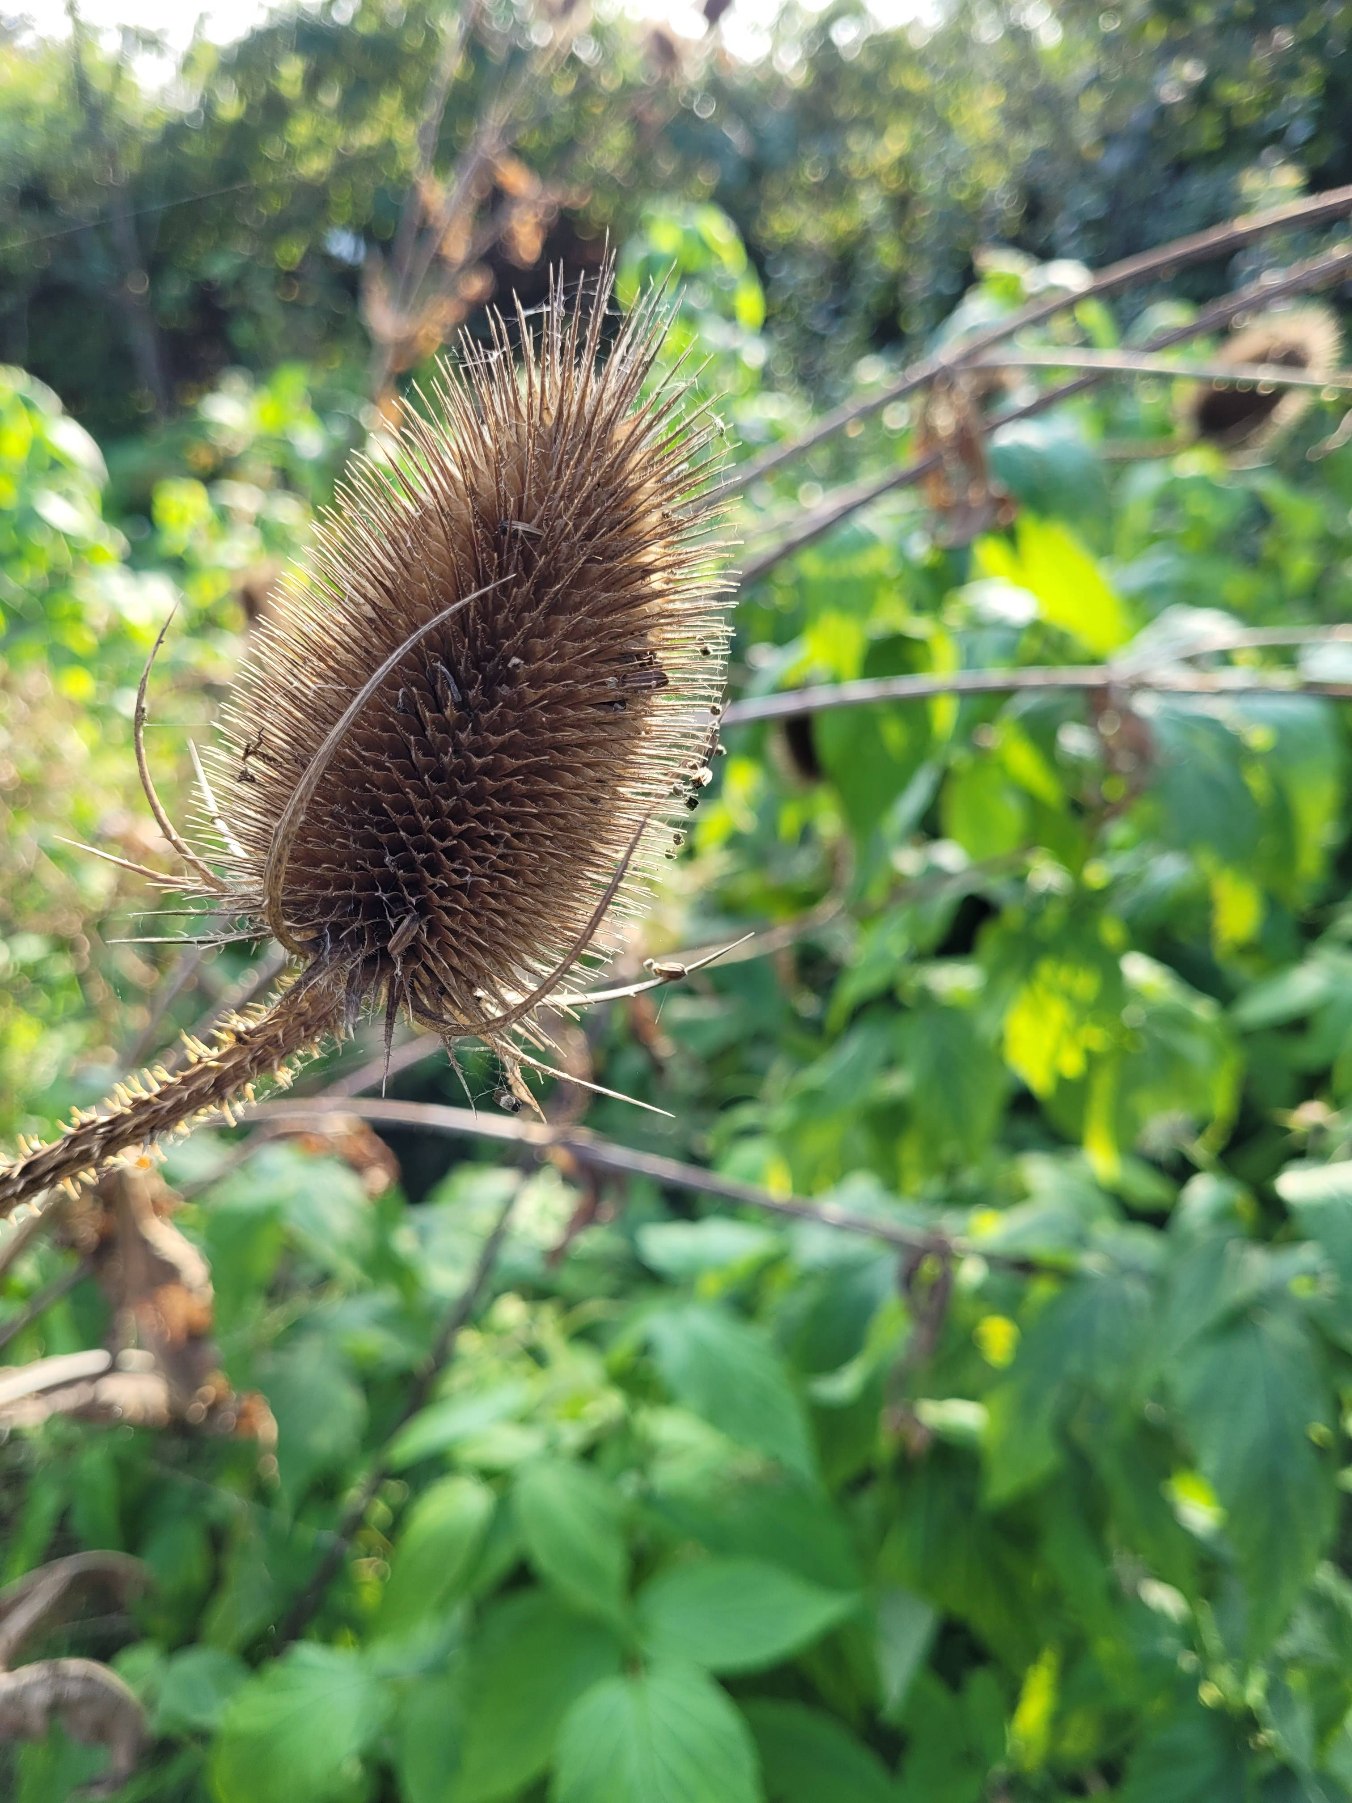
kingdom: Plantae
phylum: Tracheophyta
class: Magnoliopsida
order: Dipsacales
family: Caprifoliaceae
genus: Dipsacus
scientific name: Dipsacus fullonum
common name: Gærde-kartebolle
